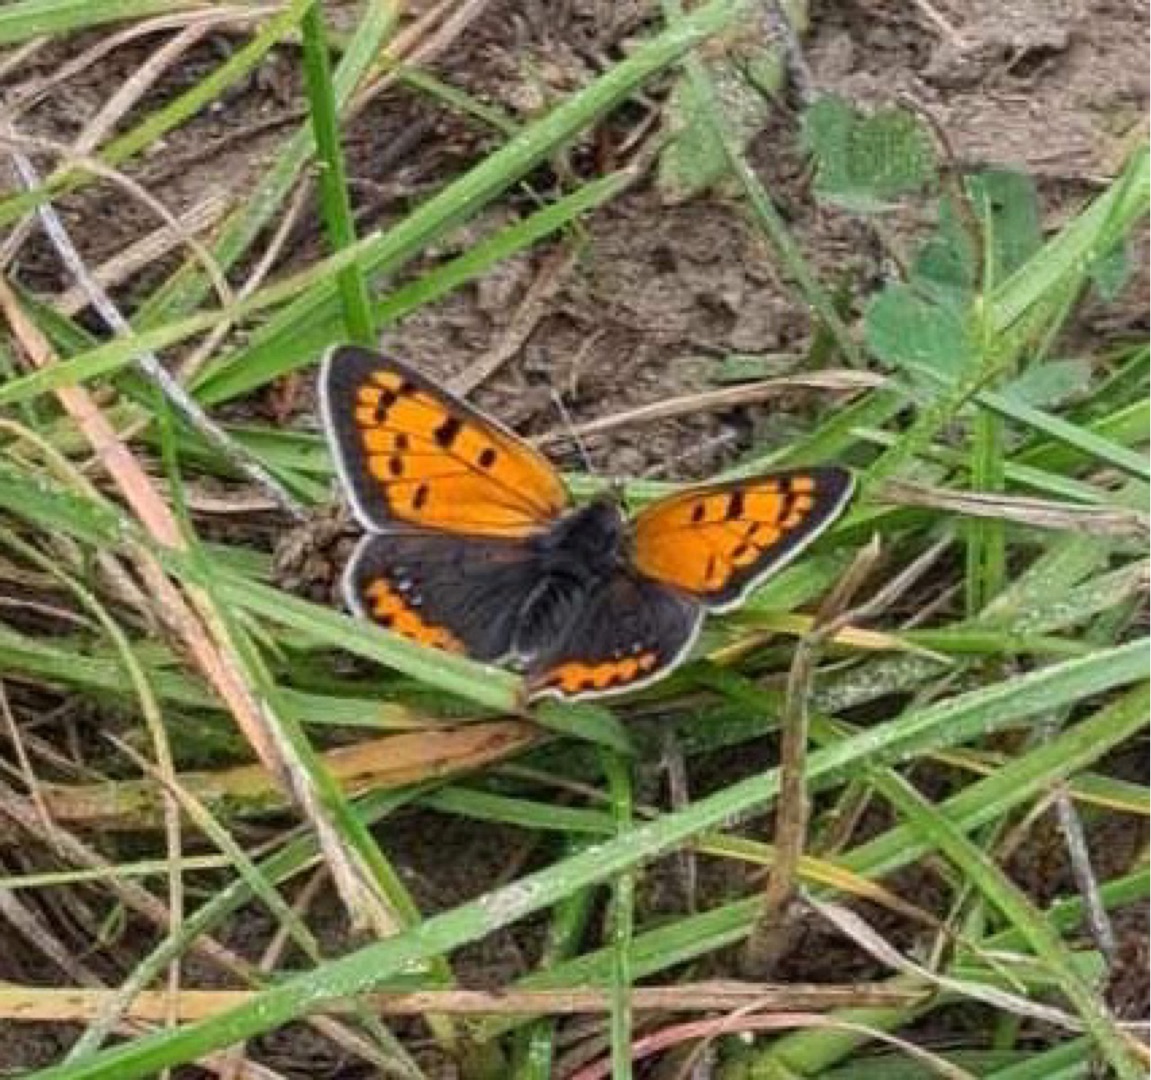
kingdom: Animalia
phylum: Arthropoda
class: Insecta
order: Lepidoptera
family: Lycaenidae
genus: Lycaena
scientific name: Lycaena phlaeas
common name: Lille ildfugl
